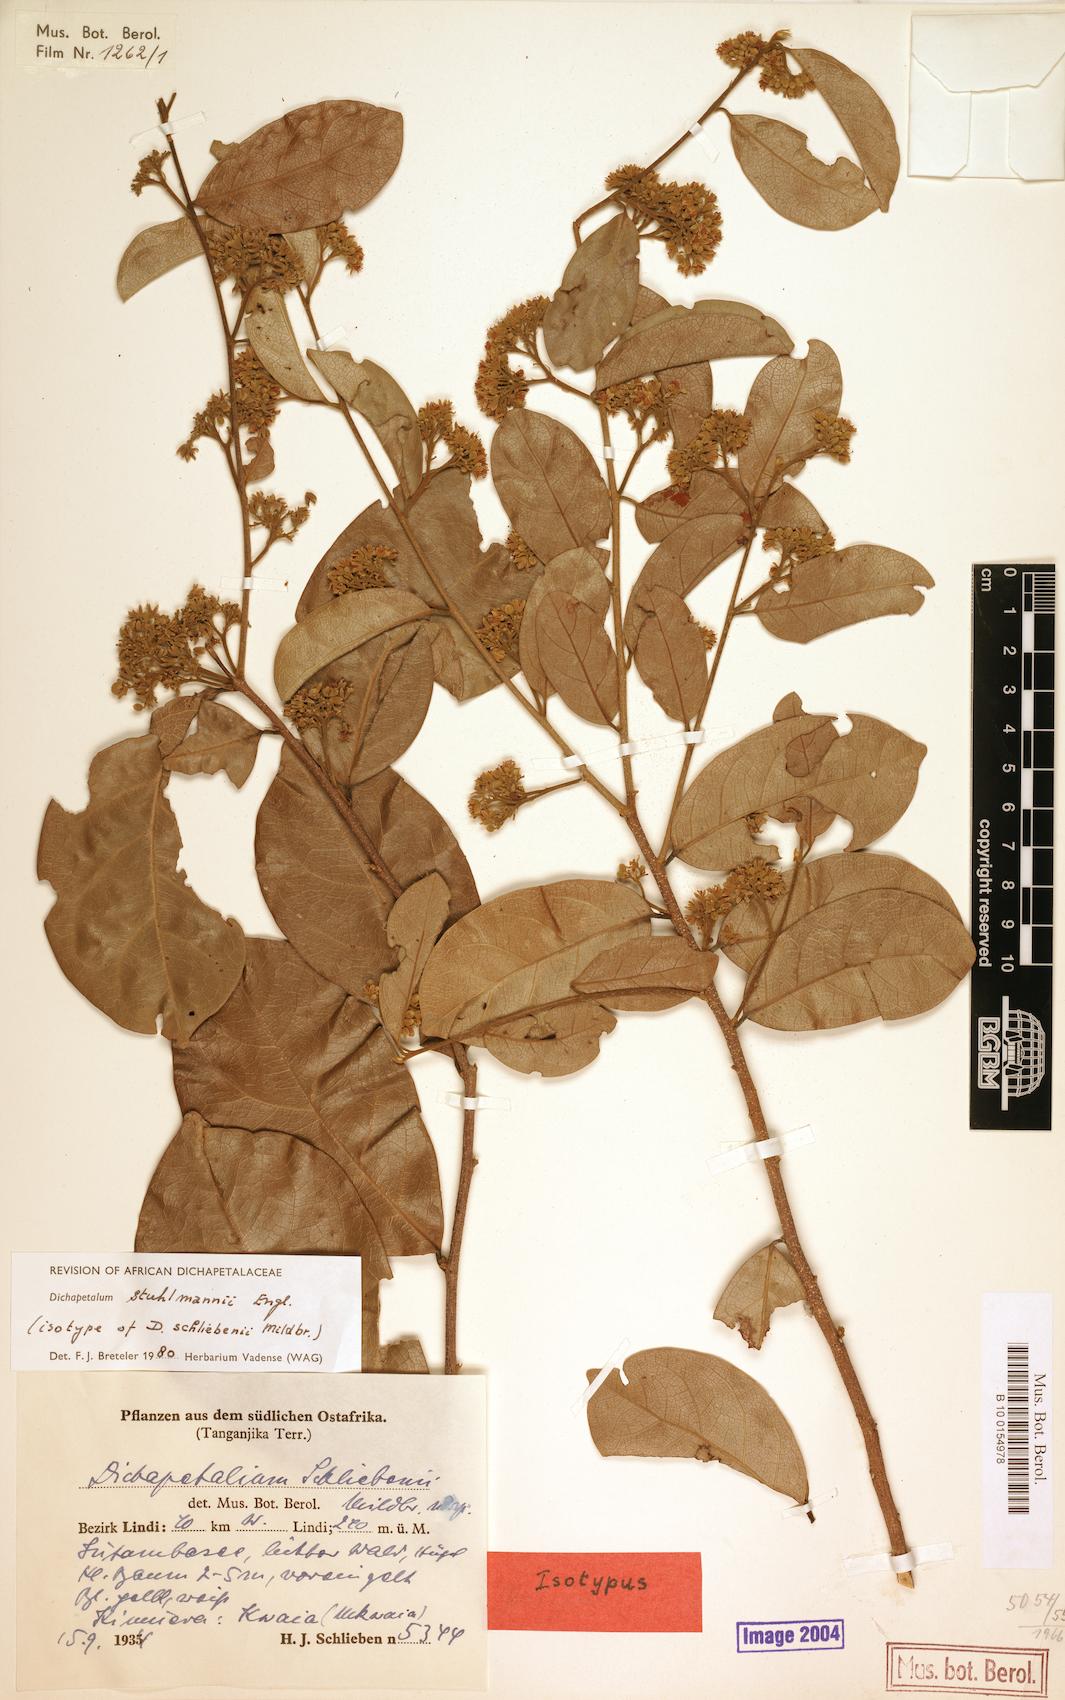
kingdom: Plantae
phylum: Tracheophyta
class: Magnoliopsida
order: Malpighiales
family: Dichapetalaceae
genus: Dichapetalum
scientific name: Dichapetalum stuhlmannii
